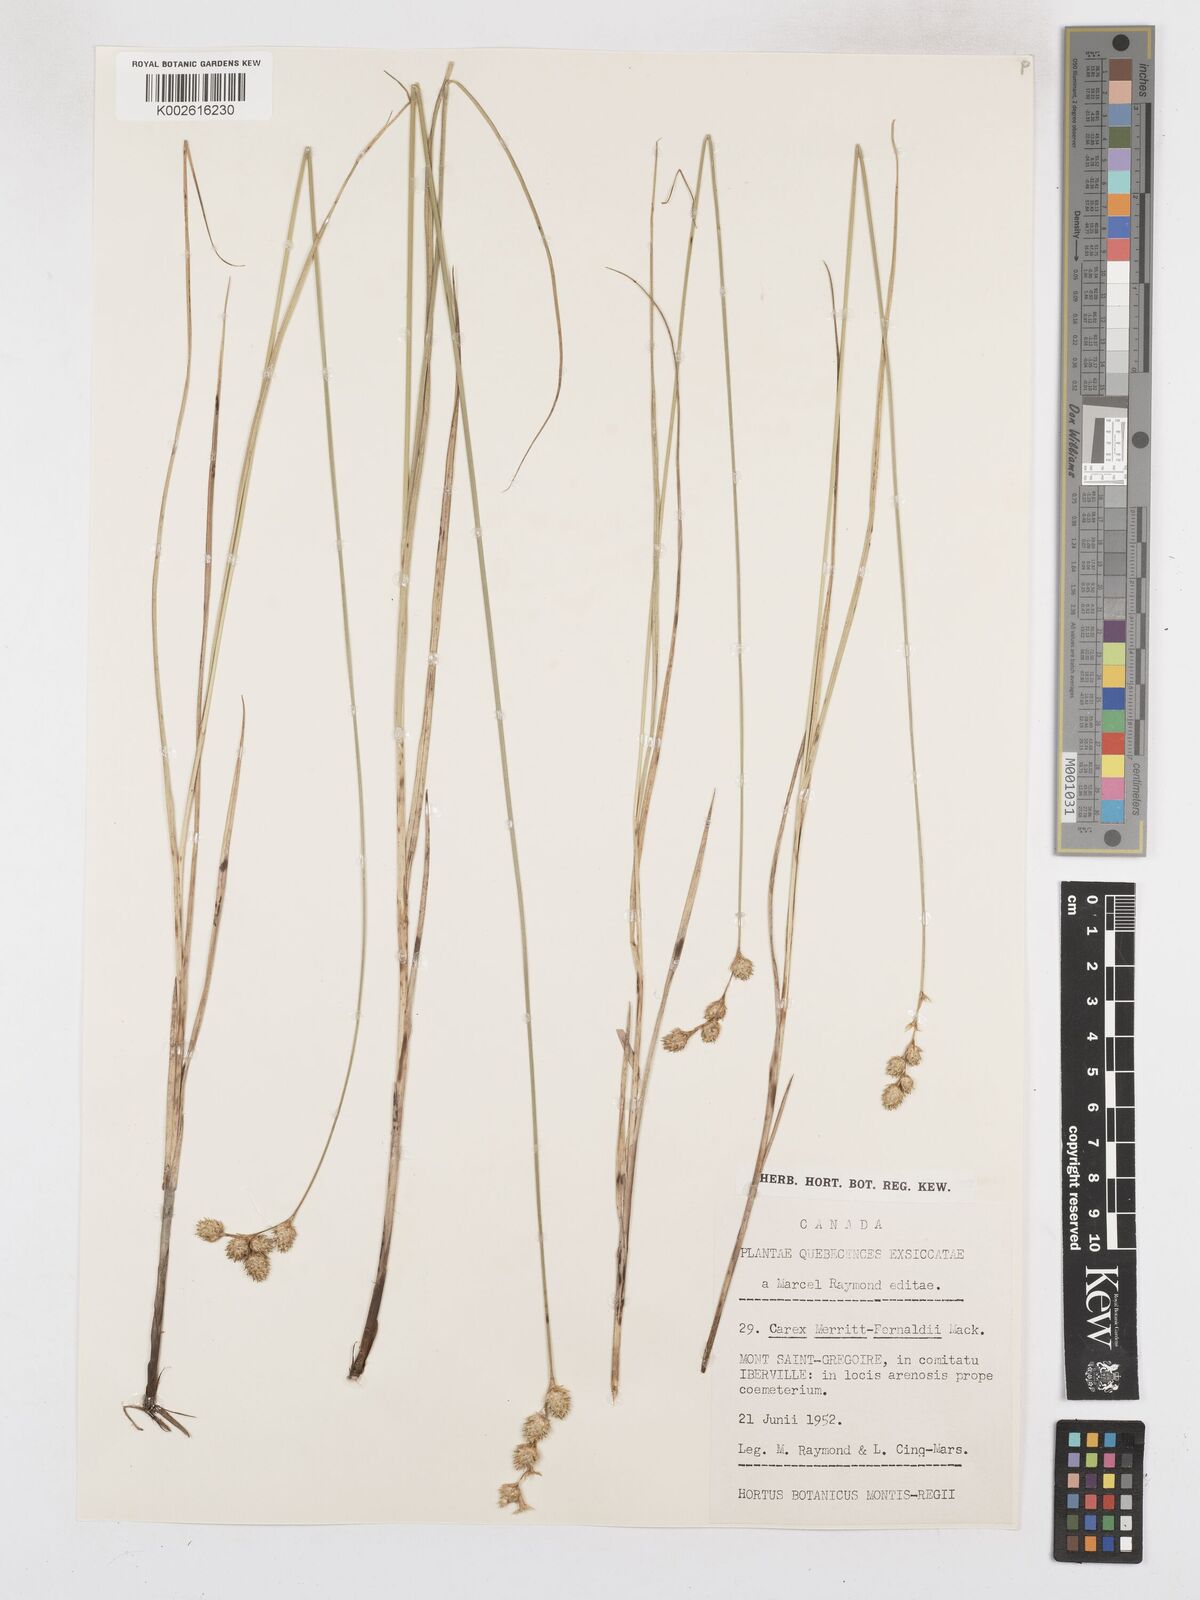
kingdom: Plantae
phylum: Tracheophyta
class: Liliopsida
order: Poales
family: Cyperaceae
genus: Carex
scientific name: Carex merritt-fernaldii
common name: Fernald's oval sedge
